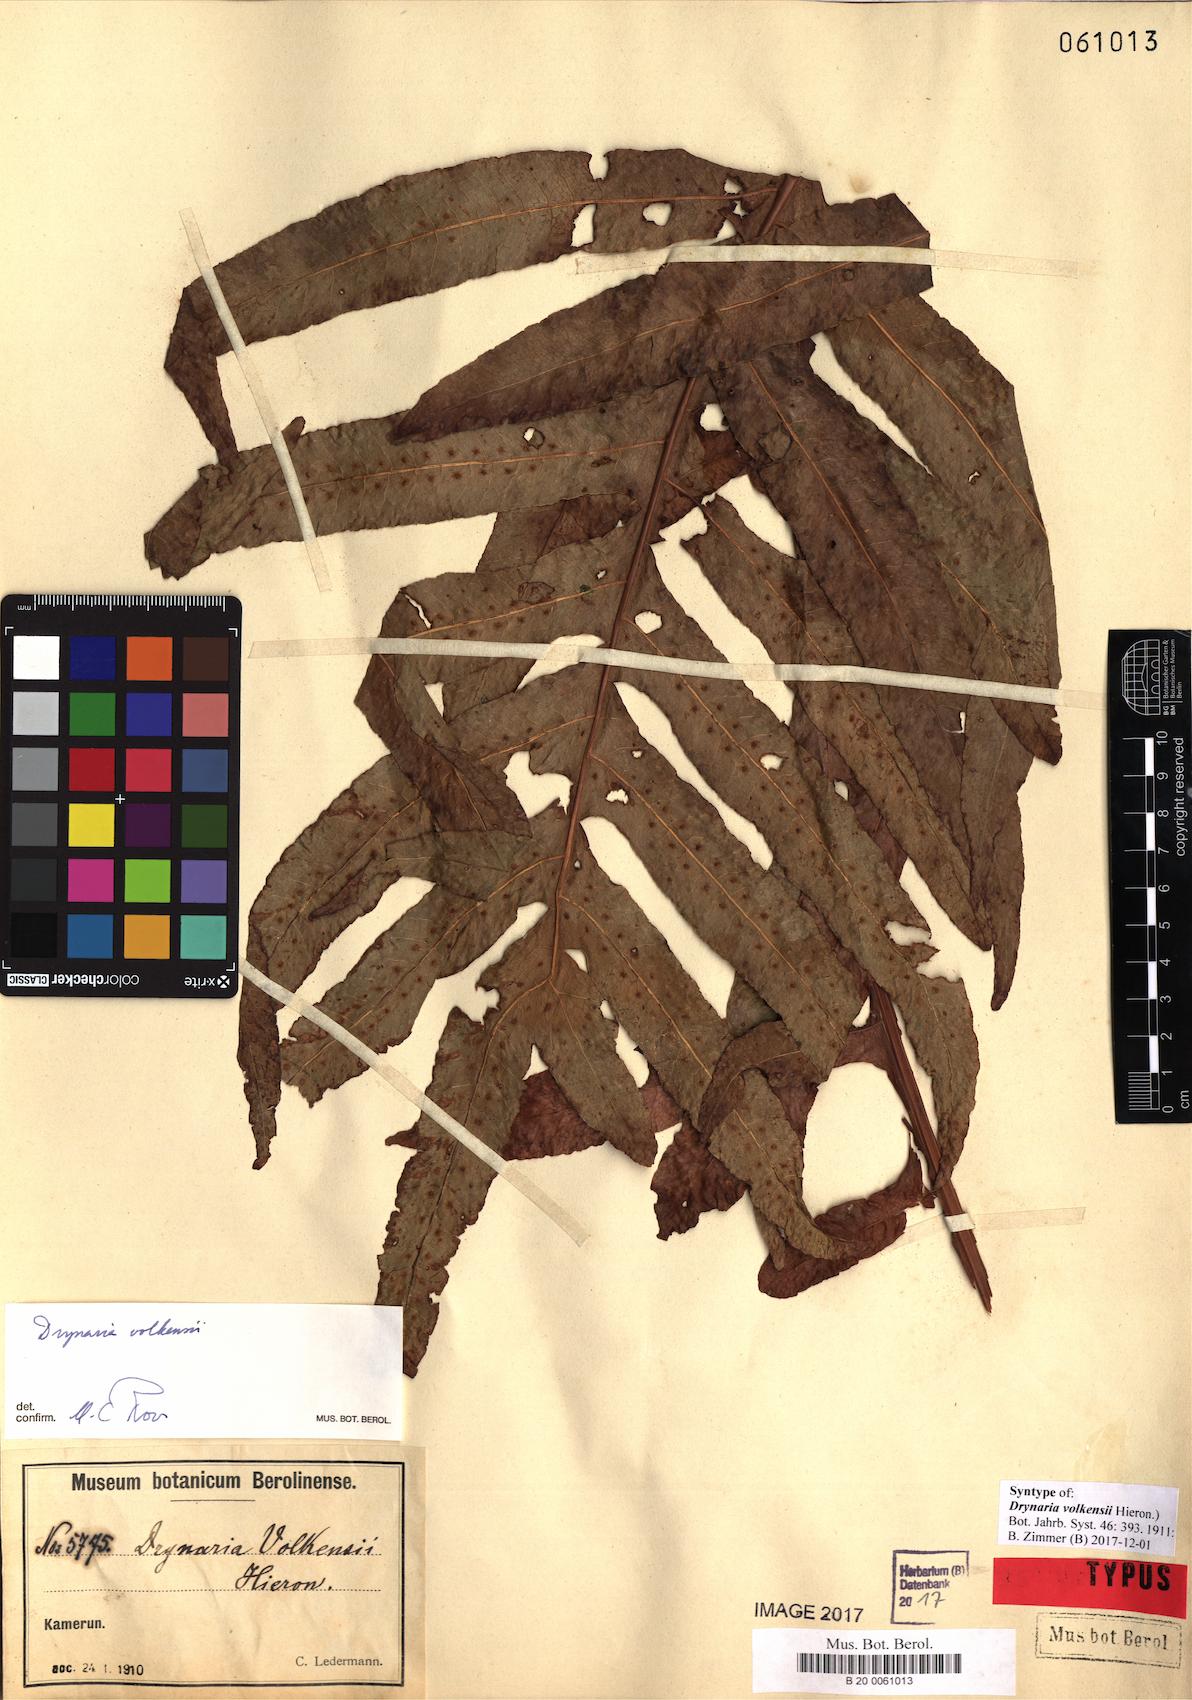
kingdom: Plantae
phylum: Tracheophyta
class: Polypodiopsida
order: Polypodiales
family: Polypodiaceae
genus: Drynaria
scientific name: Drynaria volkensii
